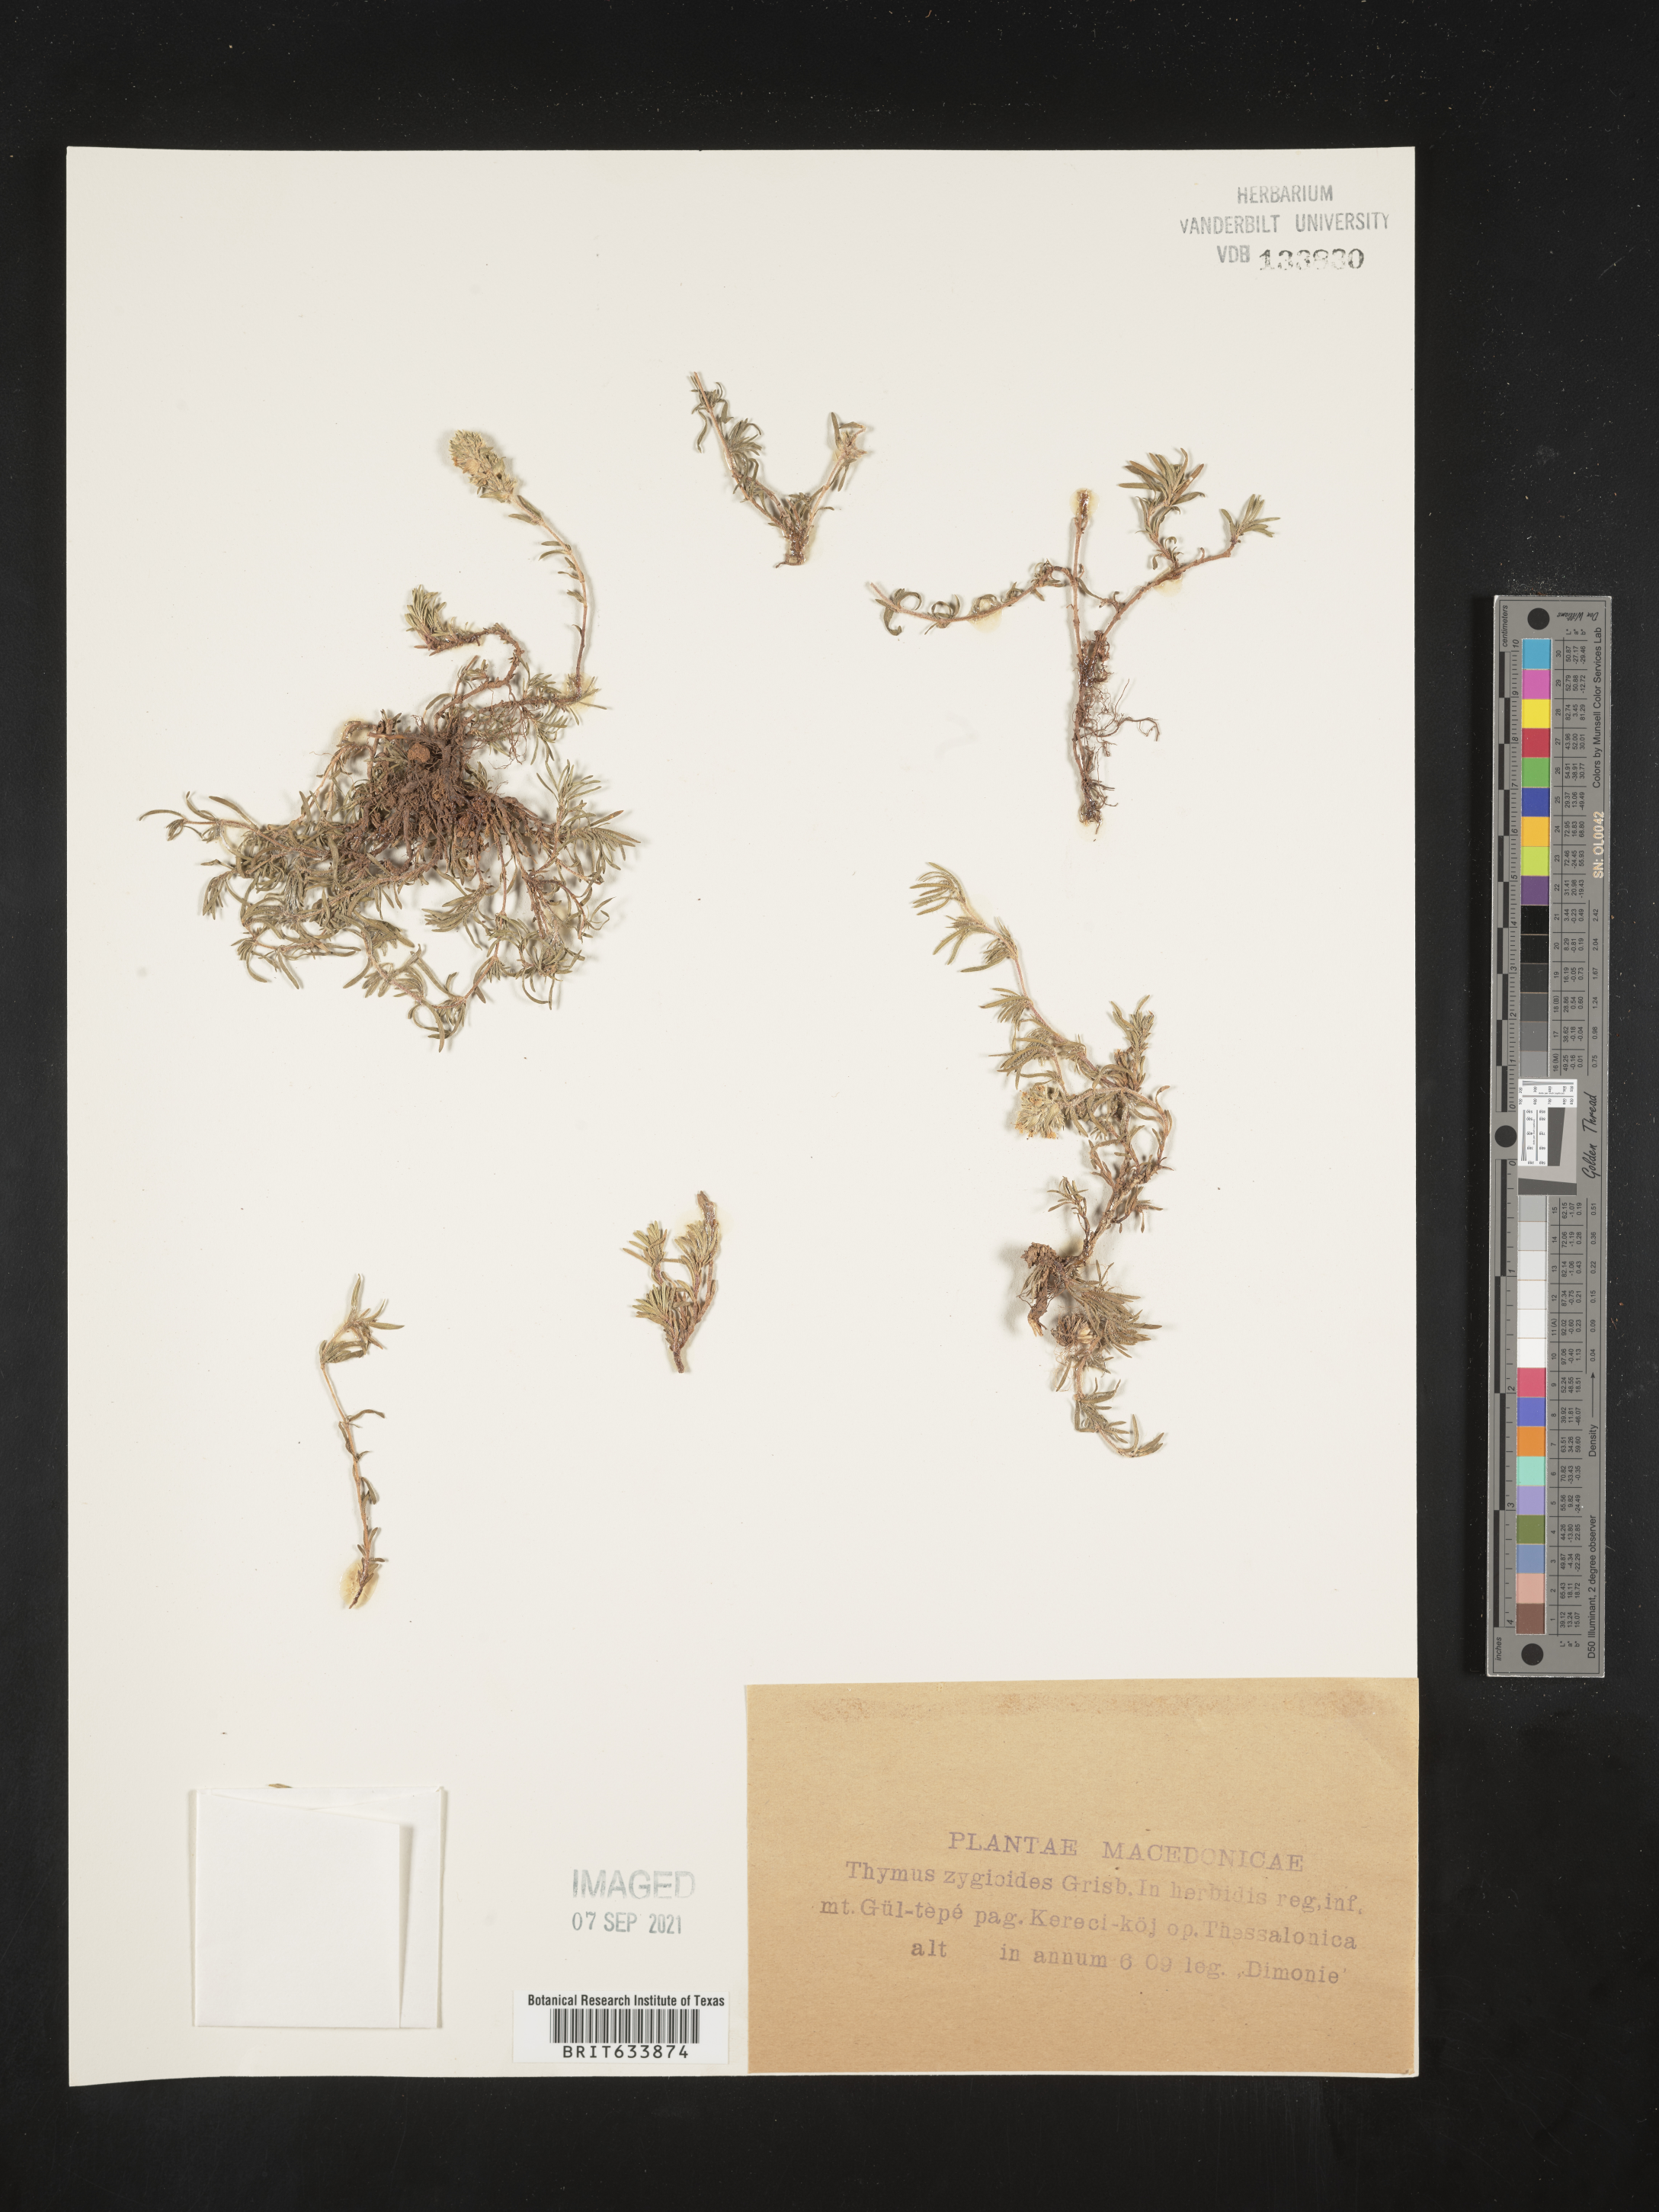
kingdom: Plantae
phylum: Tracheophyta
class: Magnoliopsida
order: Lamiales
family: Lamiaceae
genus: Thymus
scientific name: Thymus
